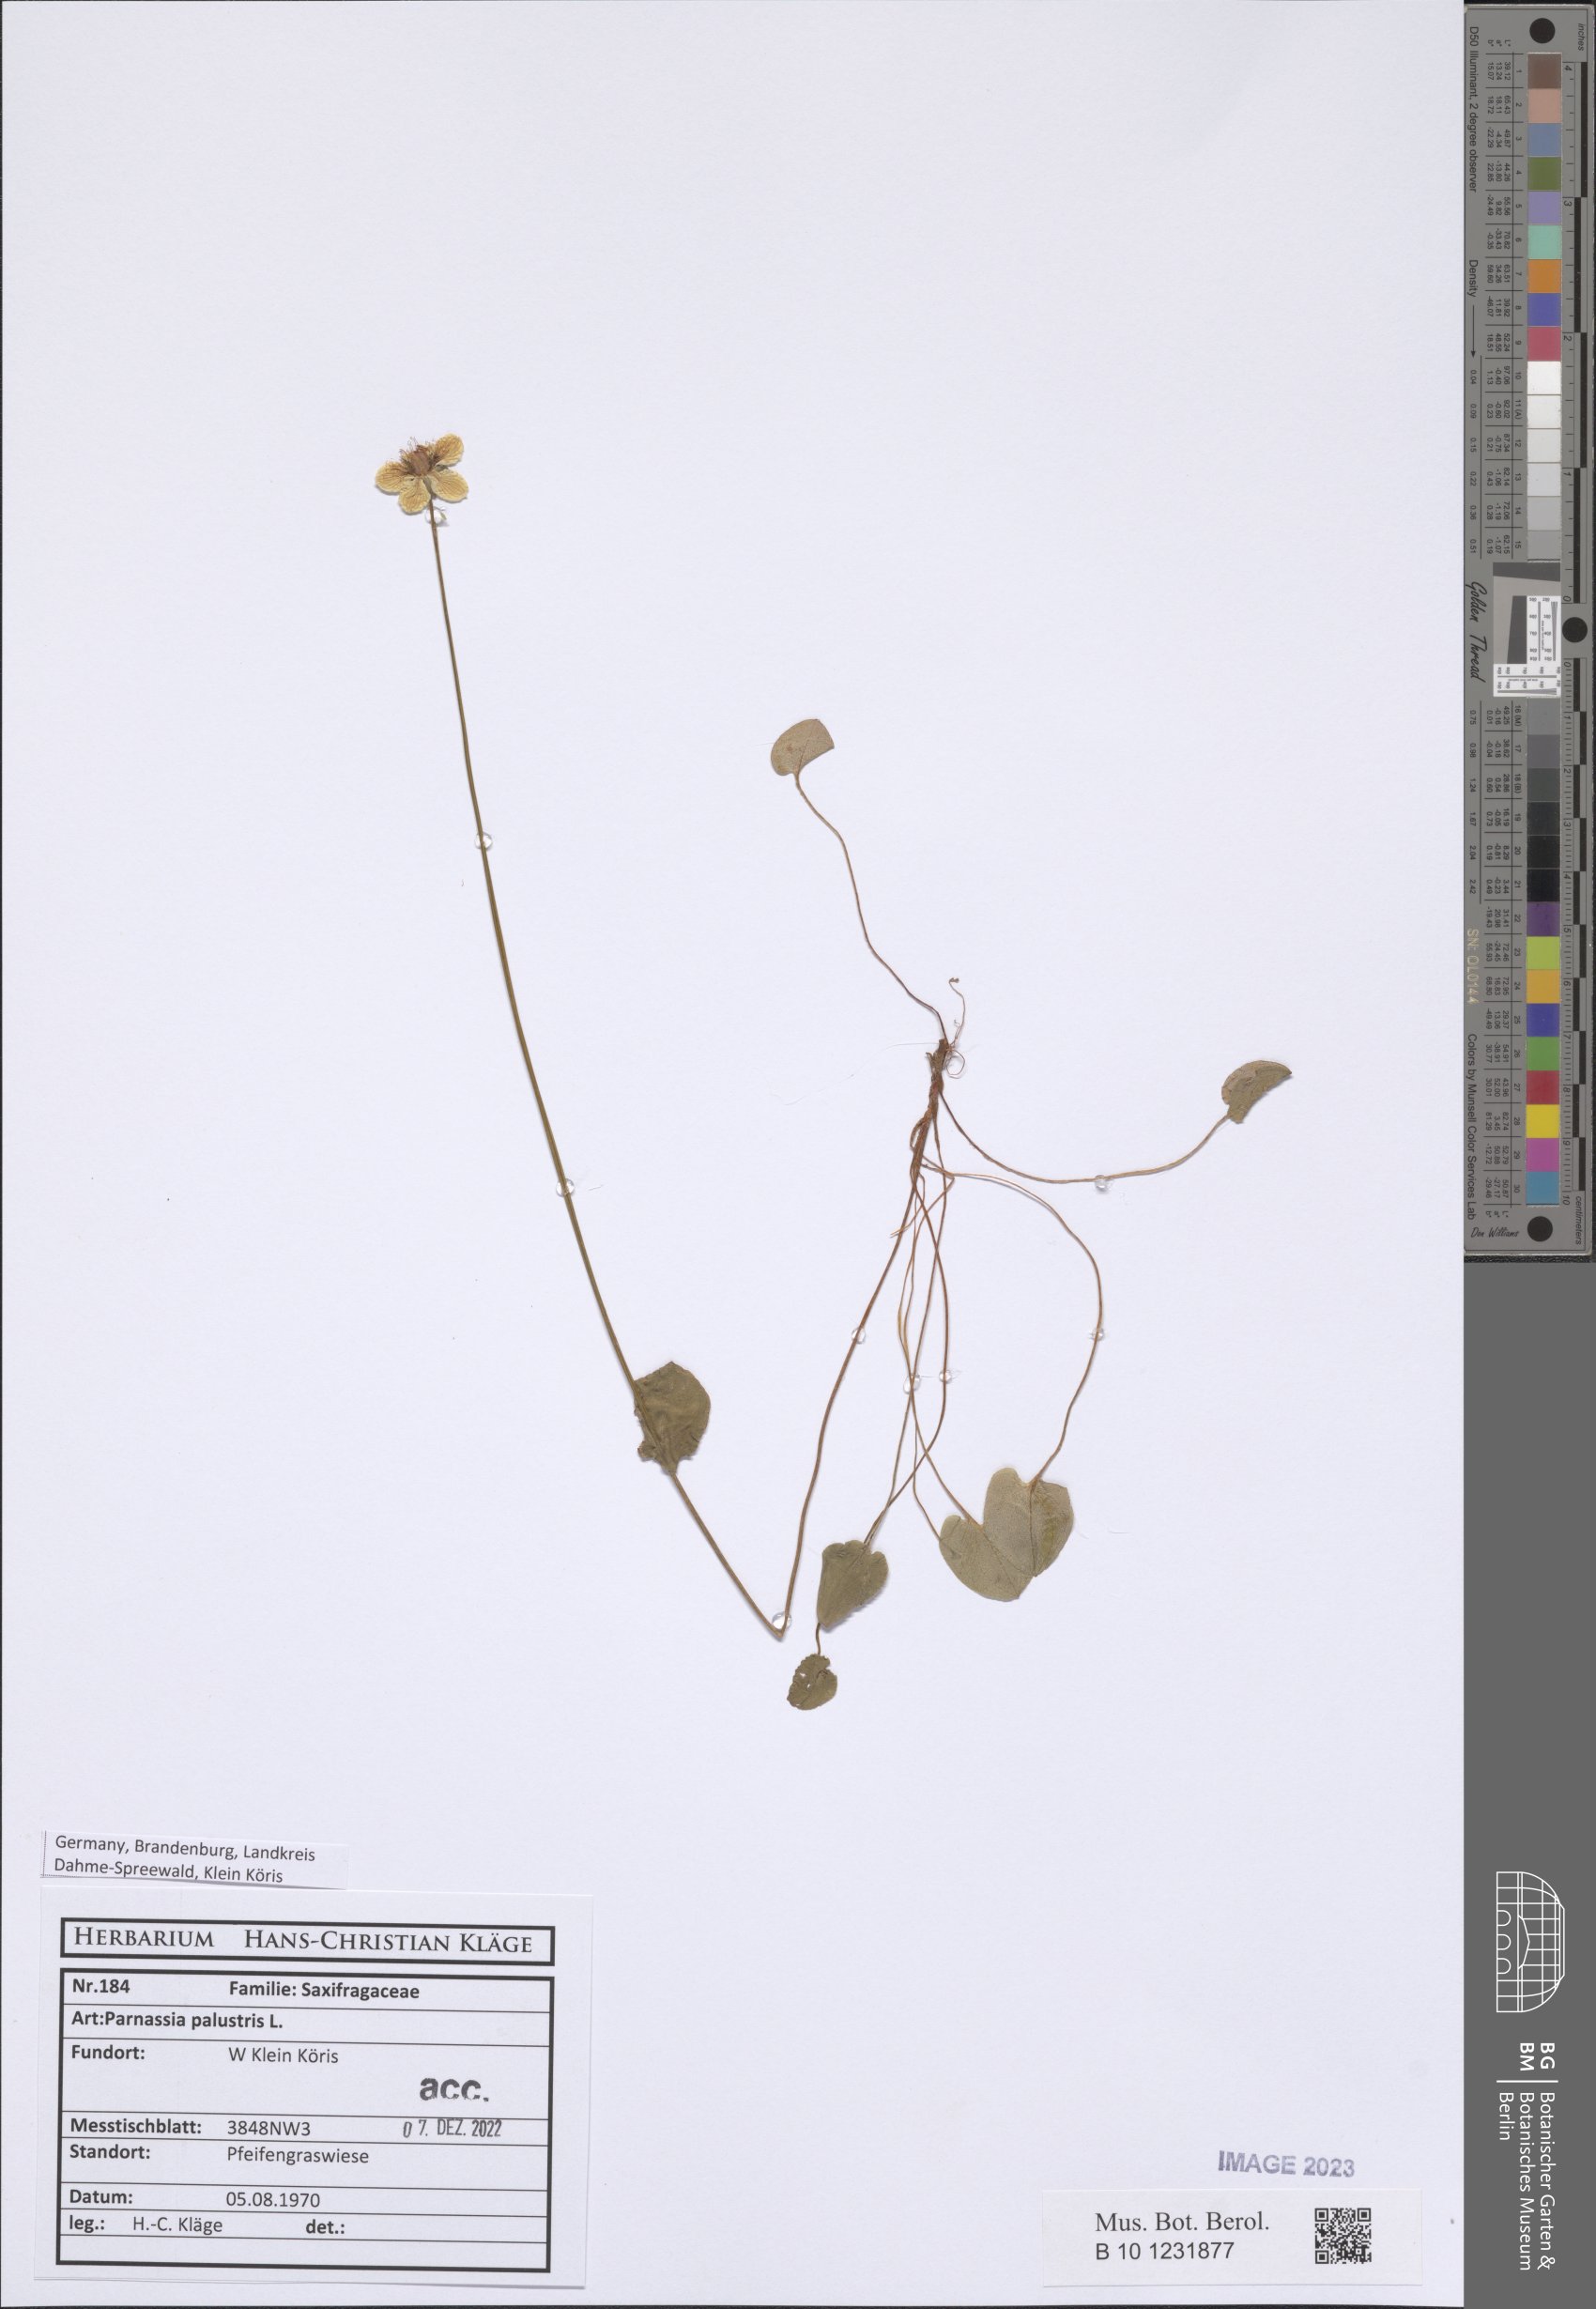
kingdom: Plantae
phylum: Tracheophyta
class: Magnoliopsida
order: Celastrales
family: Parnassiaceae
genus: Parnassia
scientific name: Parnassia palustris
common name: Grass-of-parnassus
